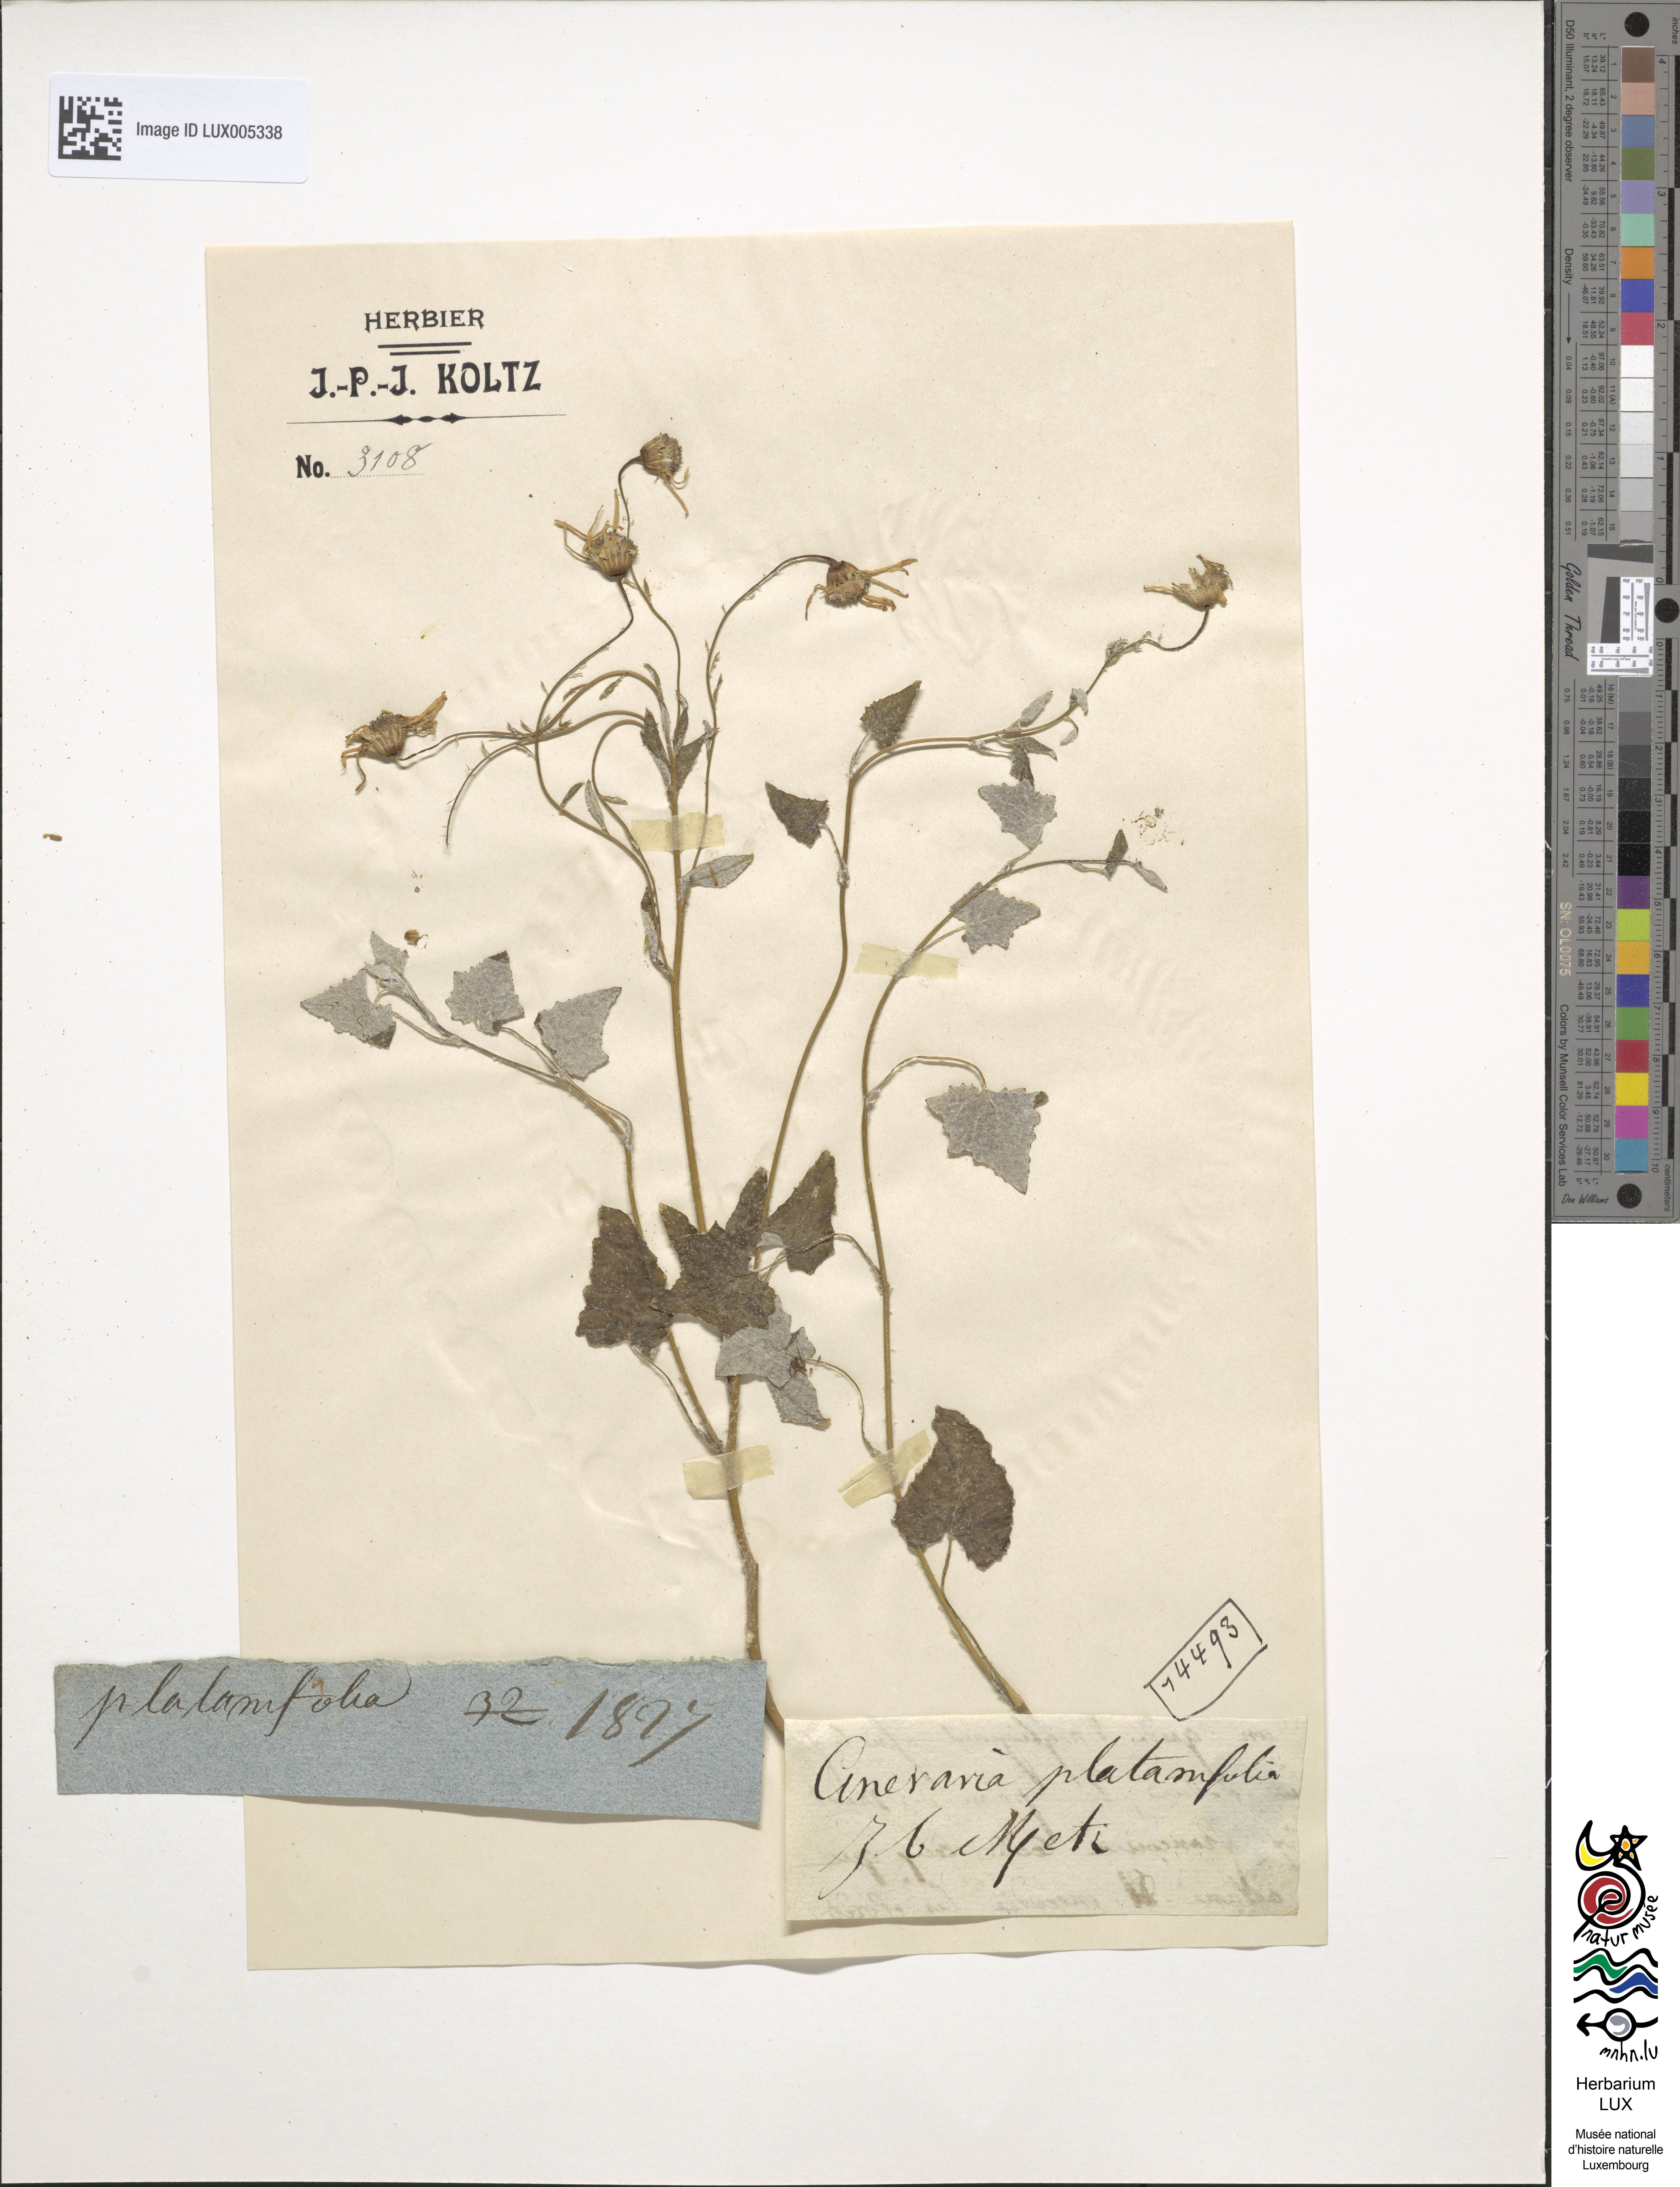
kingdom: Plantae
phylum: Tracheophyta
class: Magnoliopsida
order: Asterales
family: Asteraceae
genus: Roldana
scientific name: Roldana platanifolia
